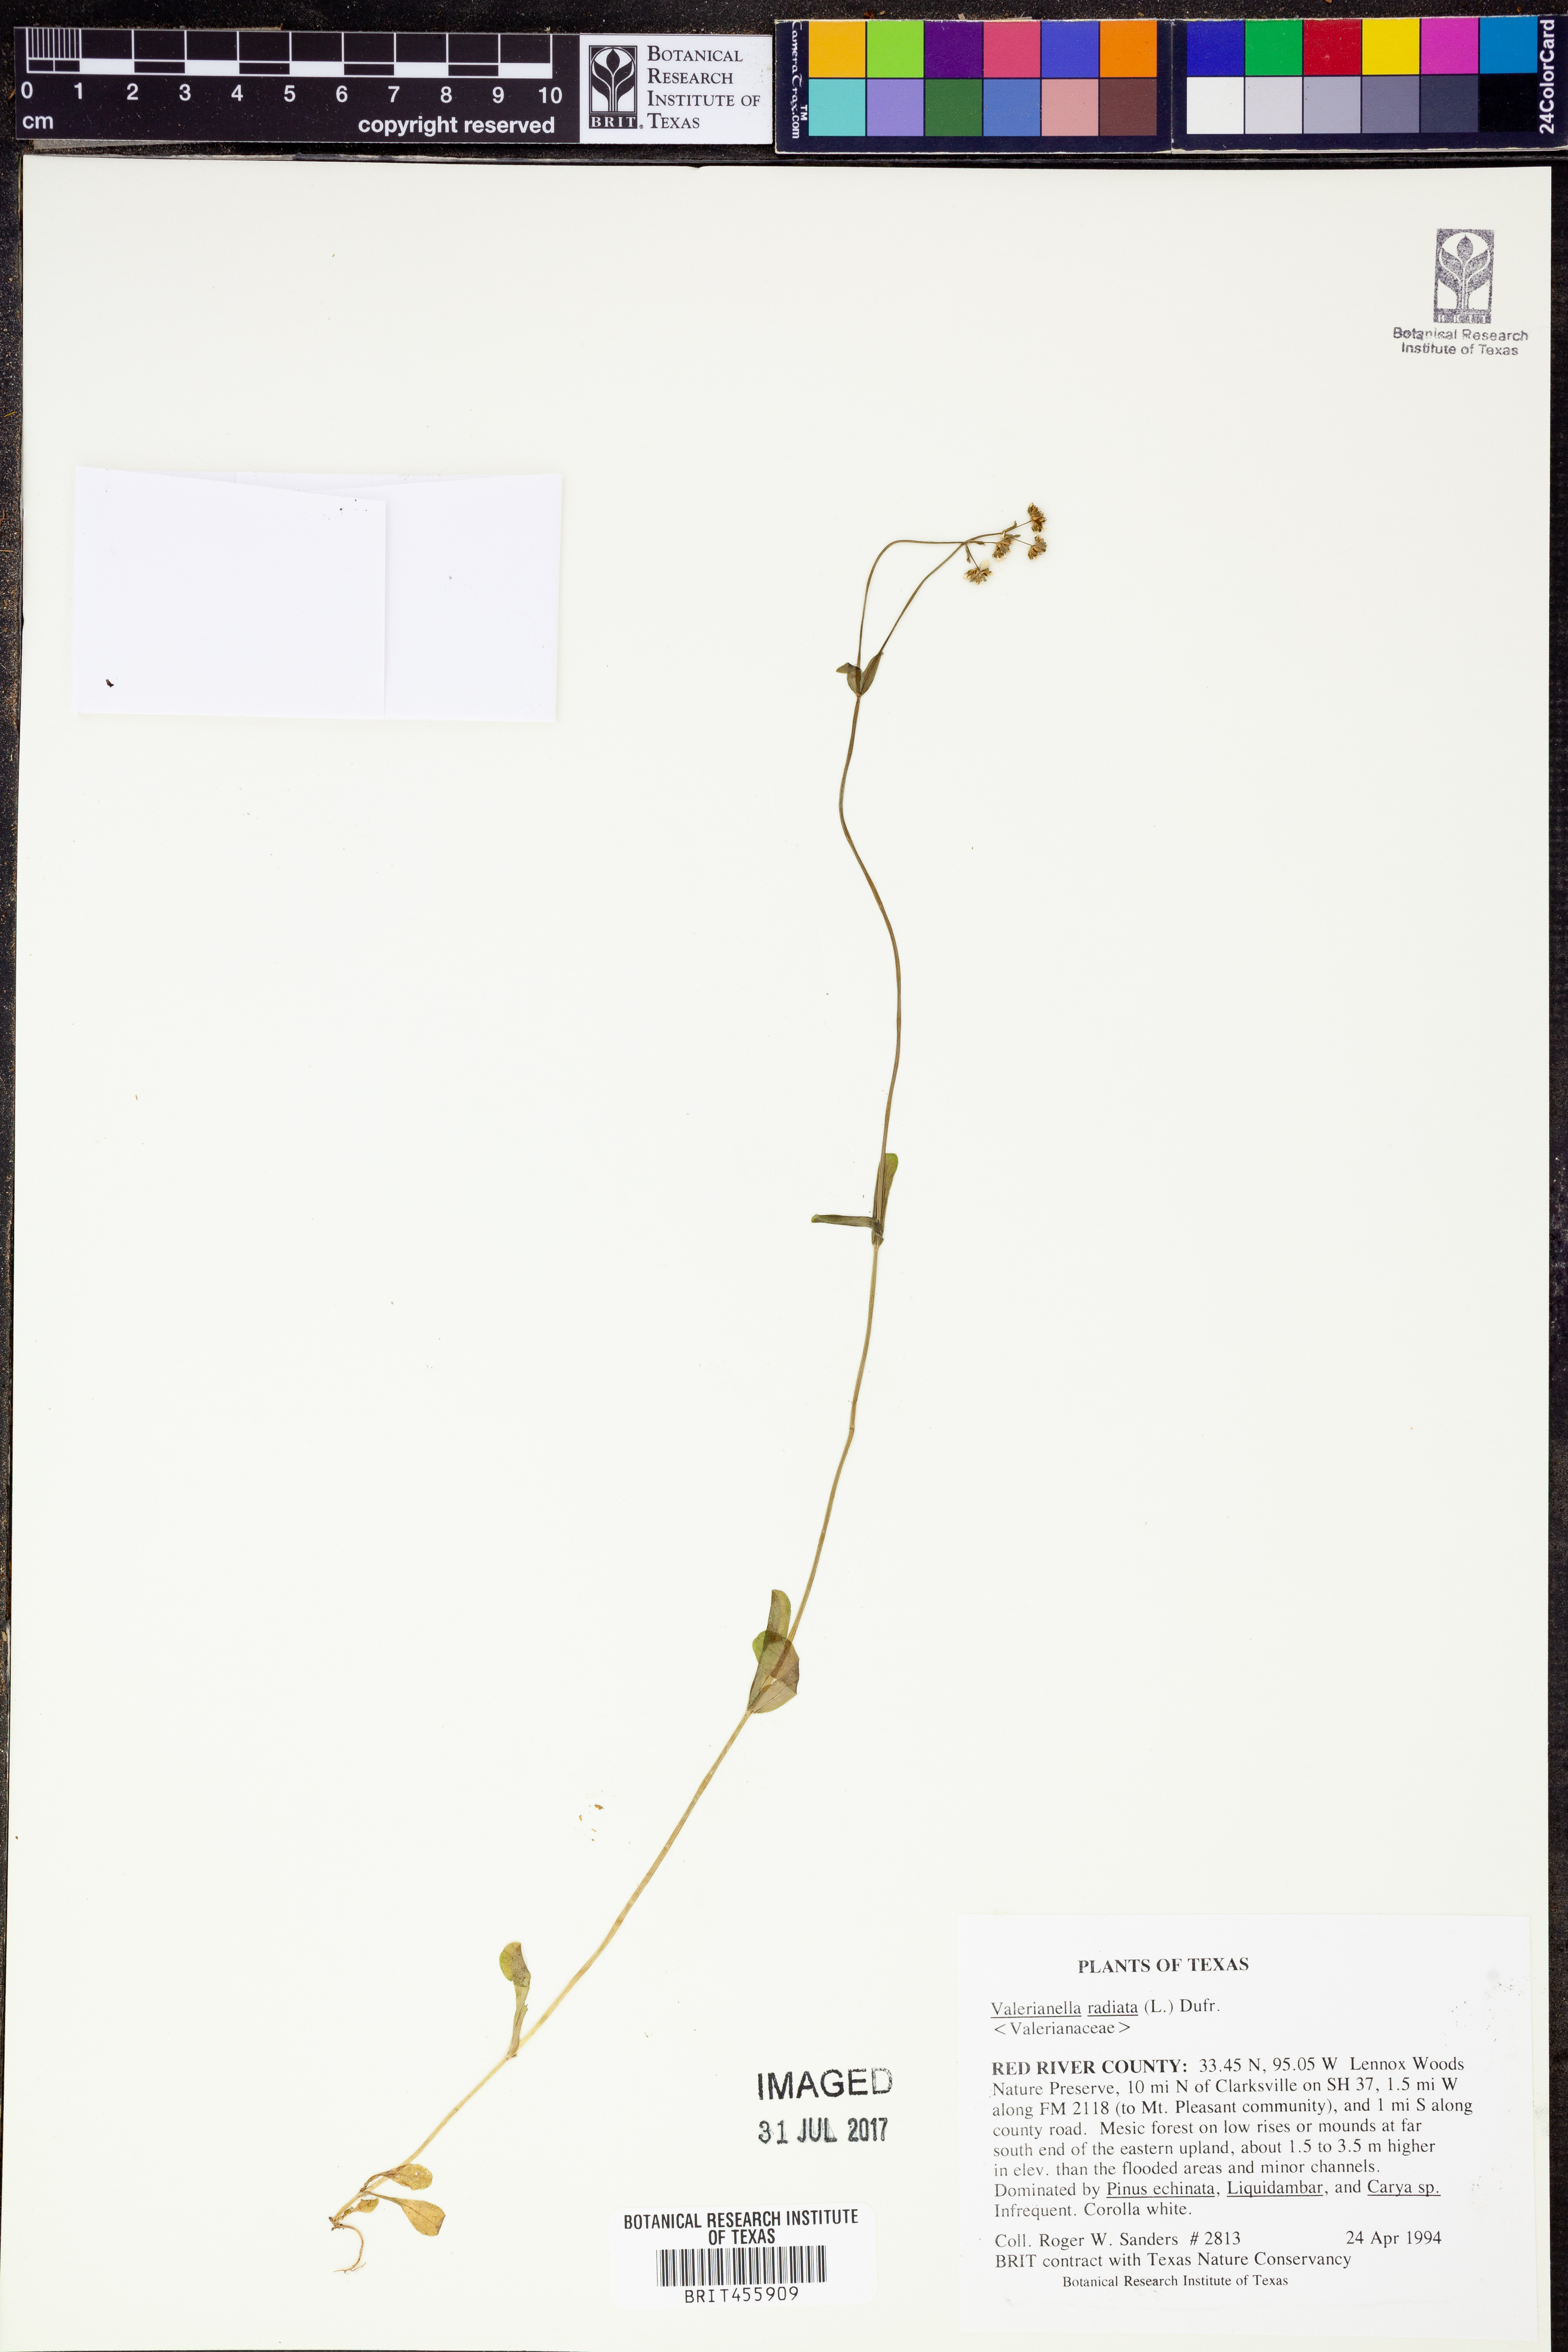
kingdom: Plantae
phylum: Tracheophyta
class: Magnoliopsida
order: Dipsacales
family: Caprifoliaceae
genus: Valerianella
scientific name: Valerianella radiata
